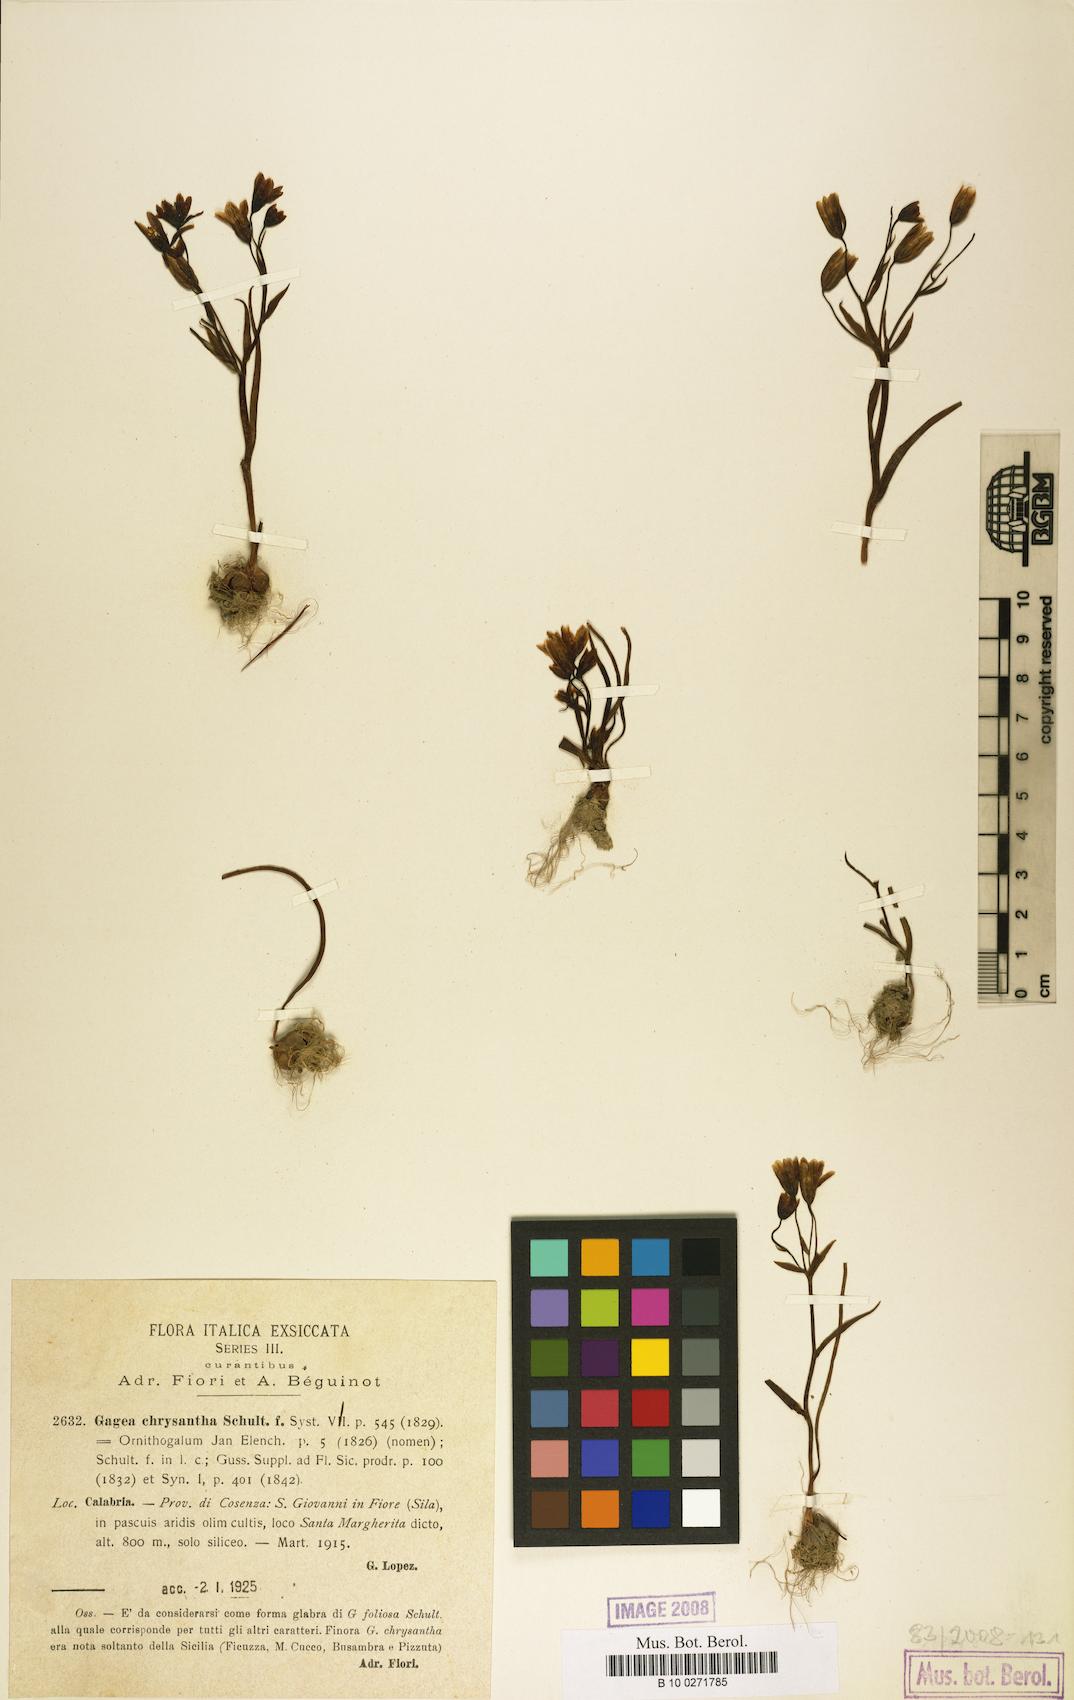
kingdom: Plantae
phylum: Tracheophyta
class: Liliopsida
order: Liliales
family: Liliaceae
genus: Gagea
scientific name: Gagea chrysantha
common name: Golden gagea
